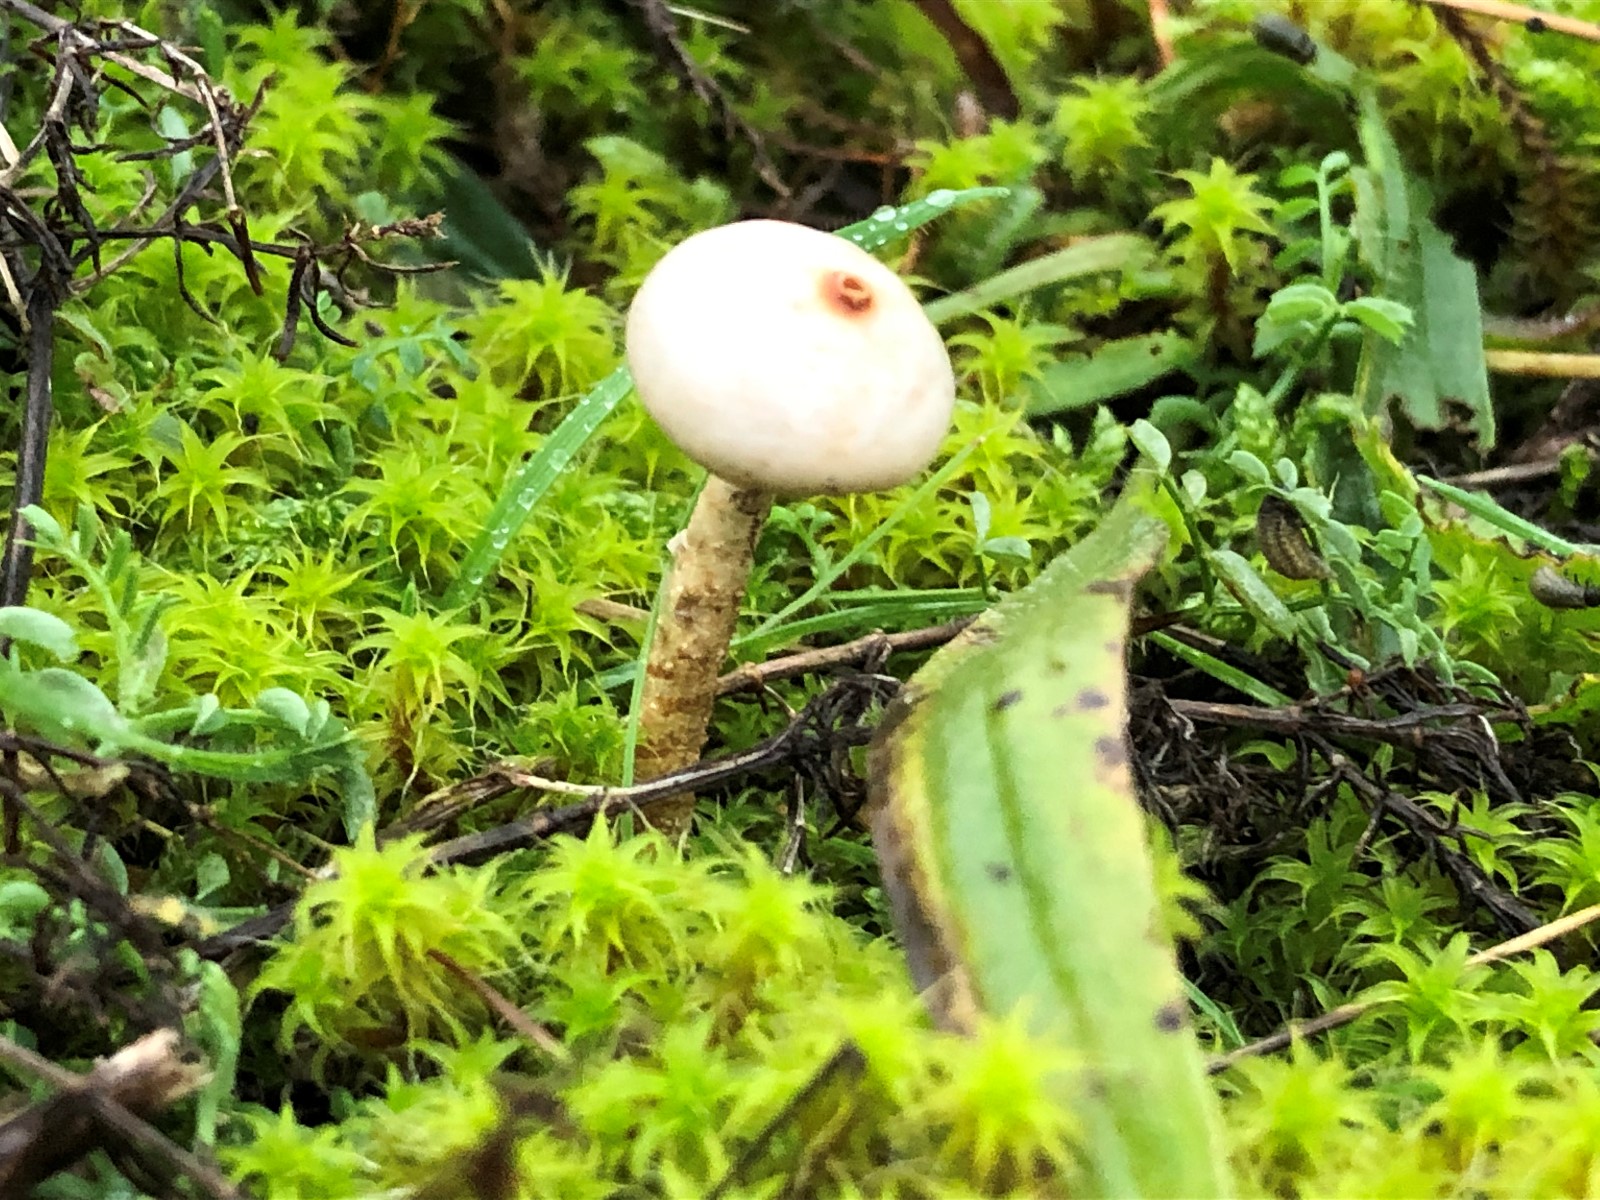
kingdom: Fungi
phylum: Basidiomycota
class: Agaricomycetes
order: Agaricales
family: Agaricaceae
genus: Tulostoma
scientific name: Tulostoma brumale
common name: vinter-stilkbovist
